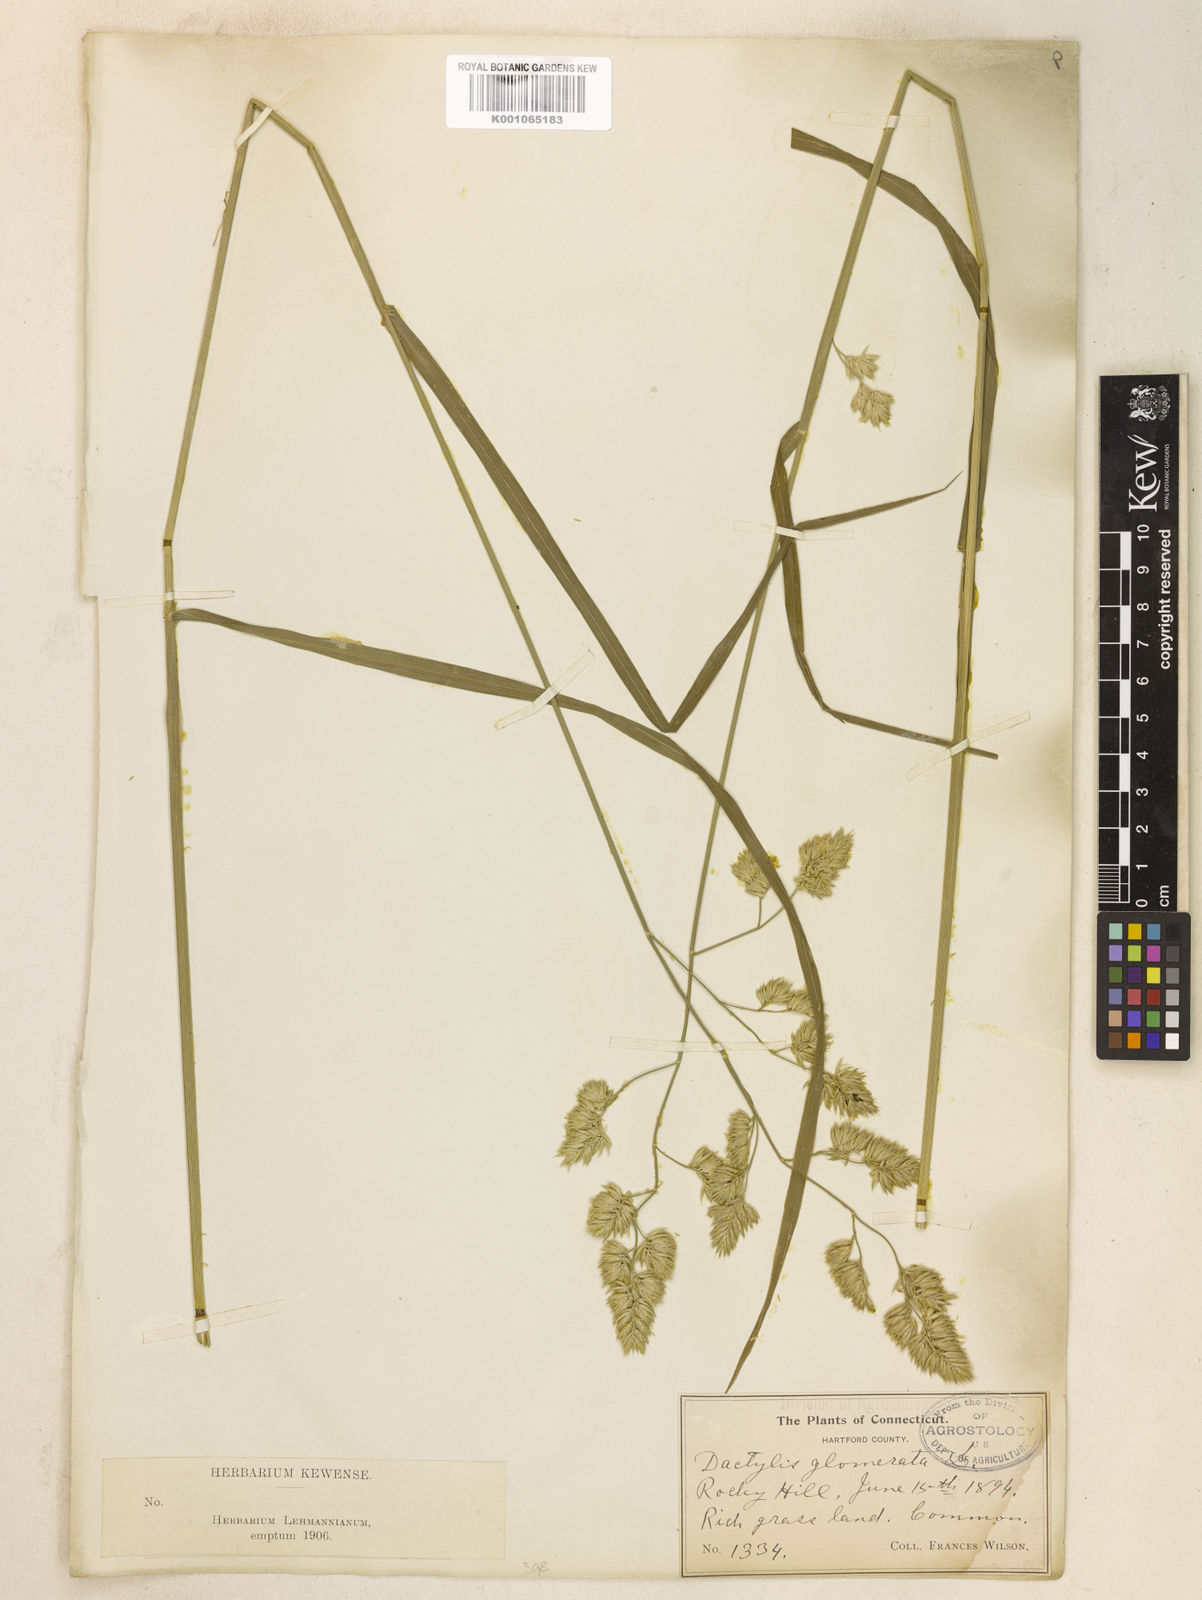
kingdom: Plantae
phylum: Tracheophyta
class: Liliopsida
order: Poales
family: Poaceae
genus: Dactylis
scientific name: Dactylis glomerata
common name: Orchardgrass
